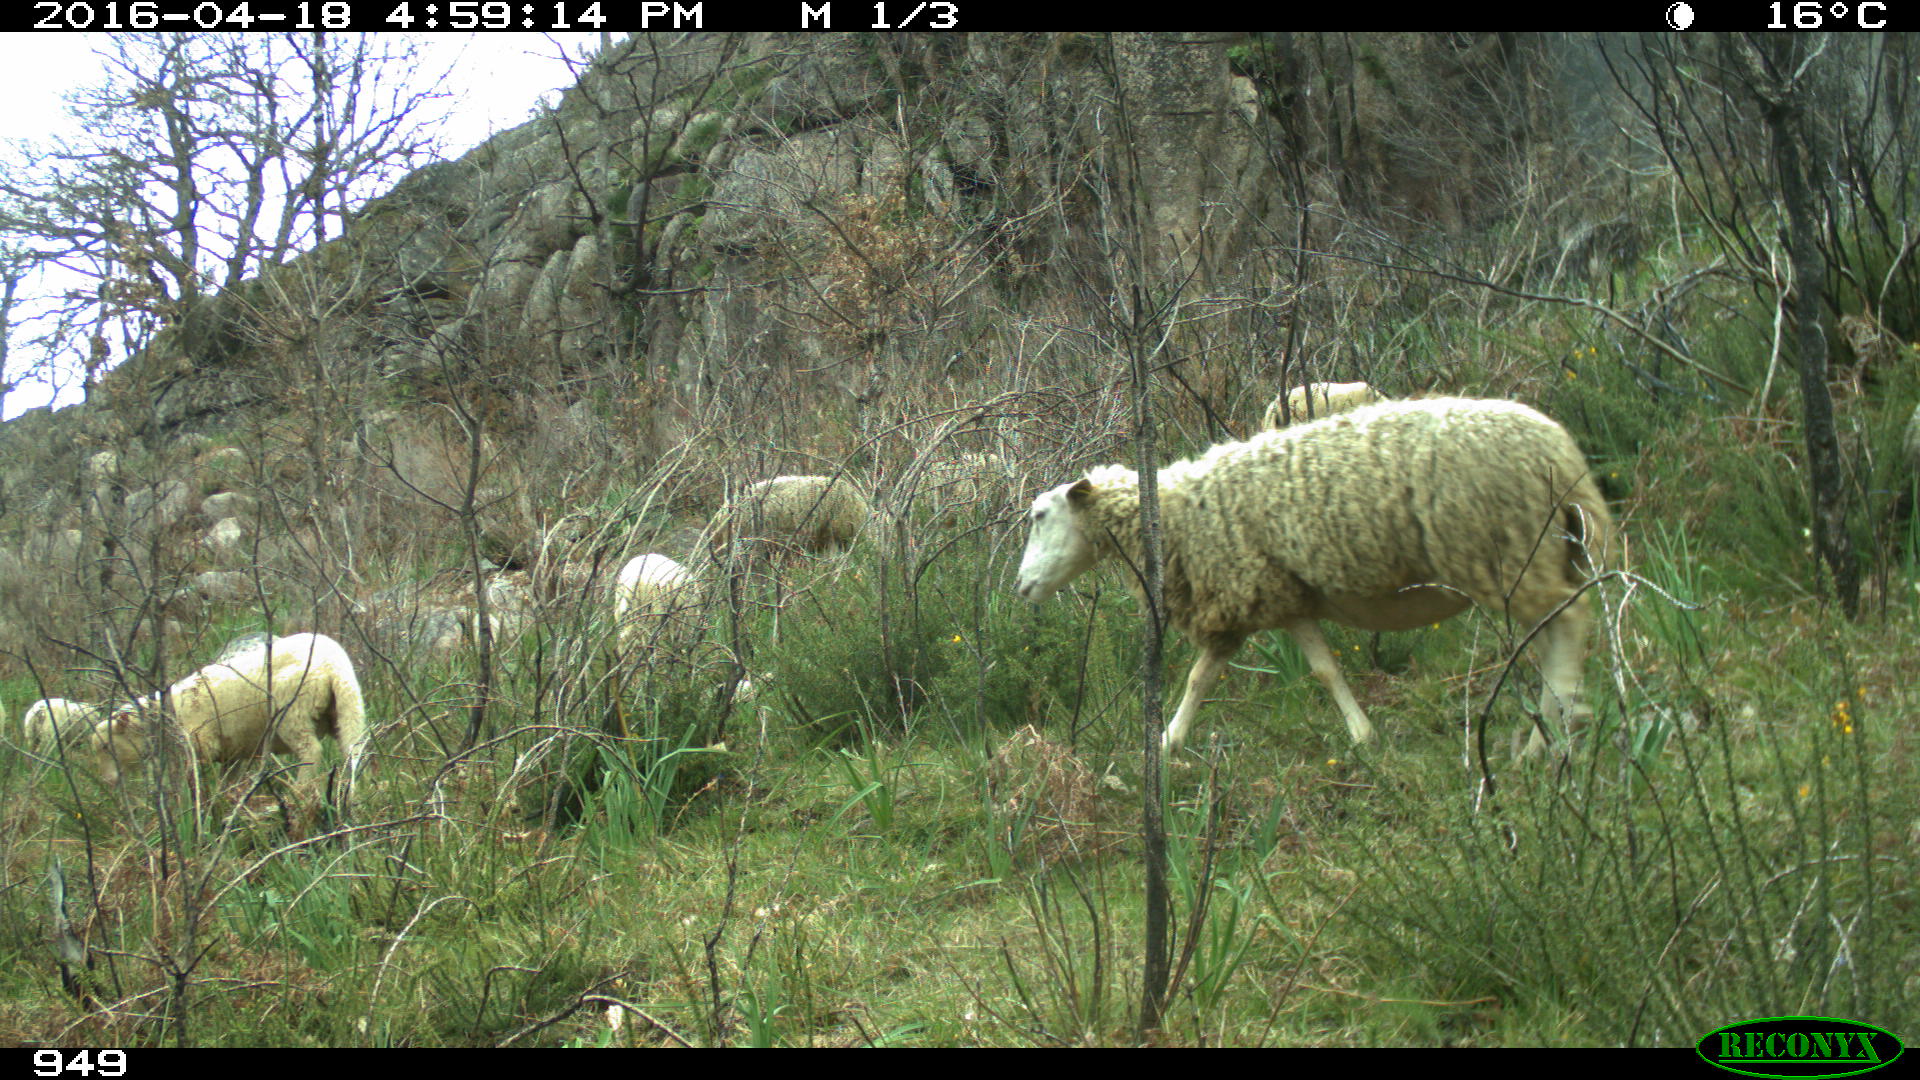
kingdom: Animalia
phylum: Chordata
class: Mammalia
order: Artiodactyla
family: Bovidae
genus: Ovis
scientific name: Ovis aries
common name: Domestic sheep
